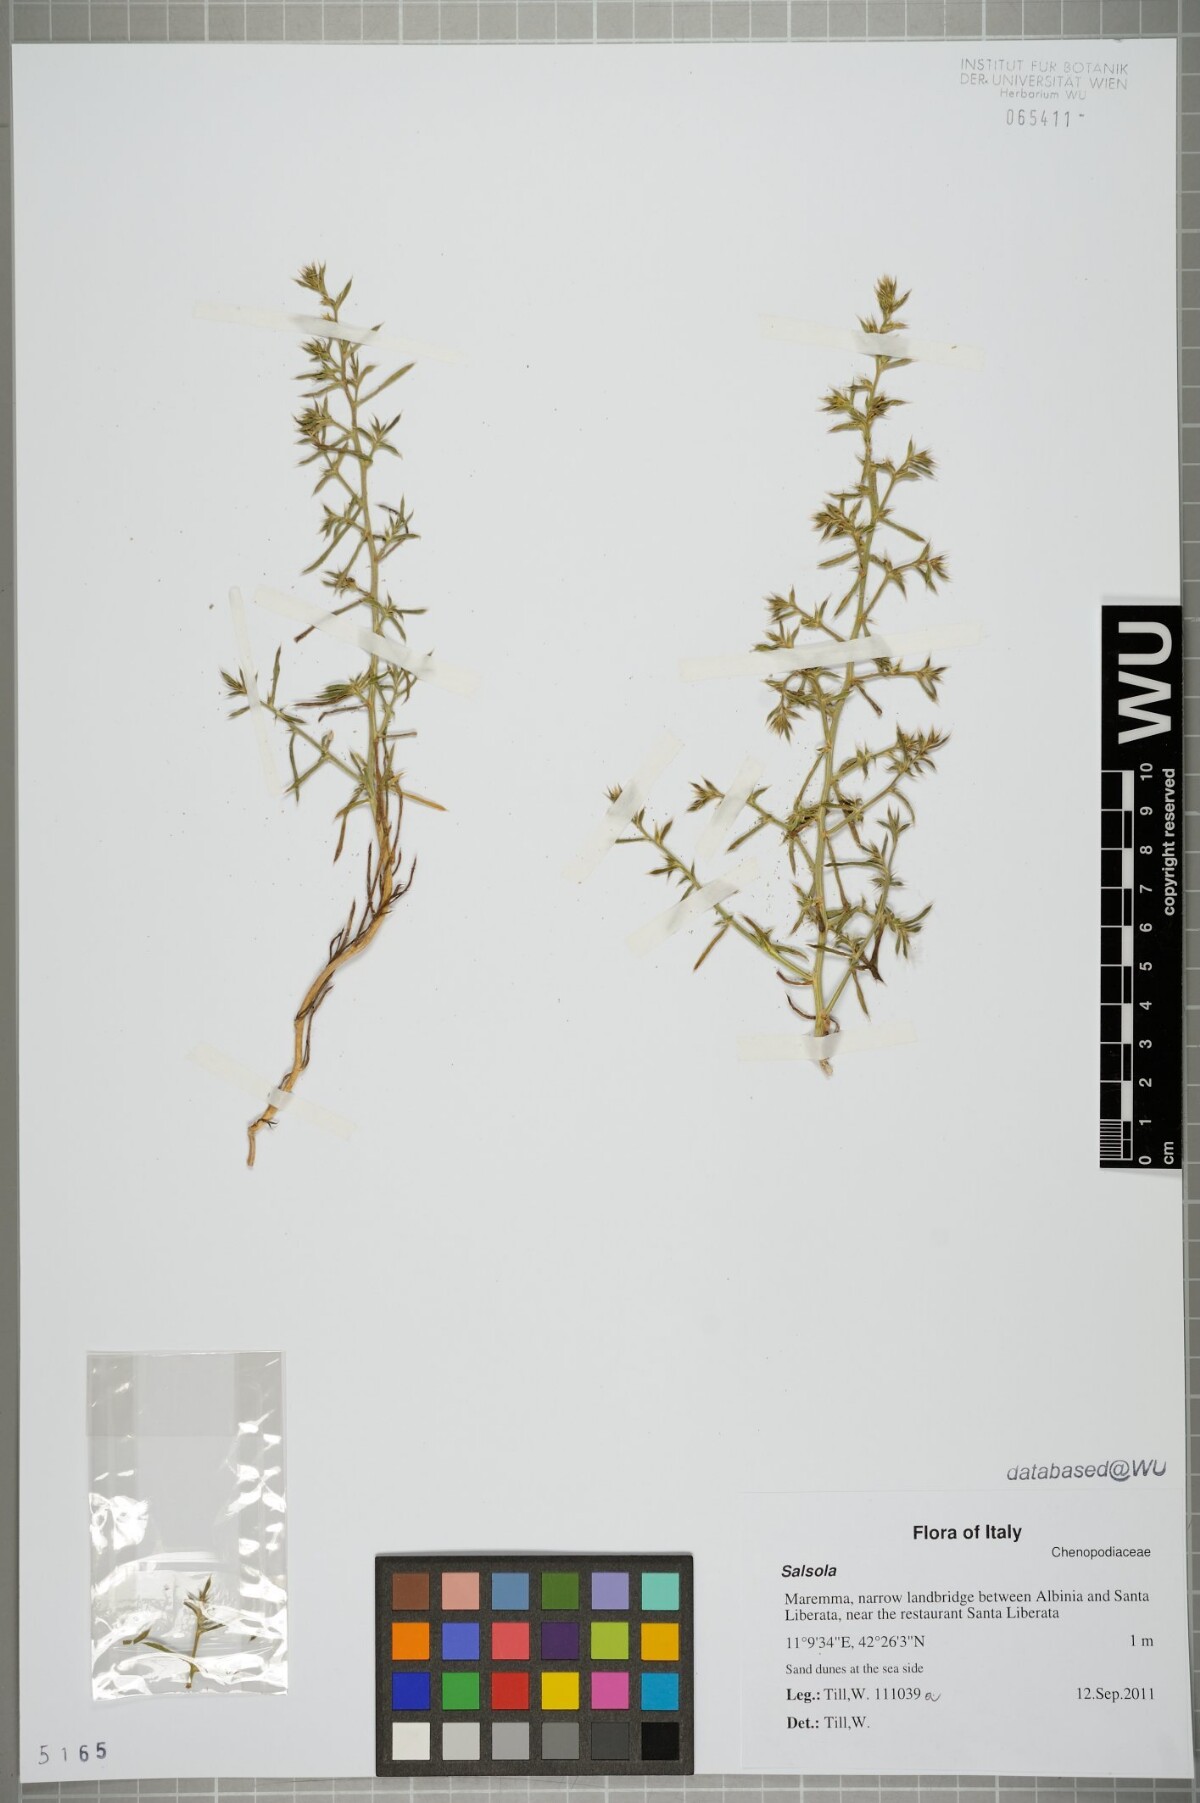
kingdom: Plantae
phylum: Tracheophyta
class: Magnoliopsida
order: Caryophyllales
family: Amaranthaceae
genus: Salsola
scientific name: Salsola
